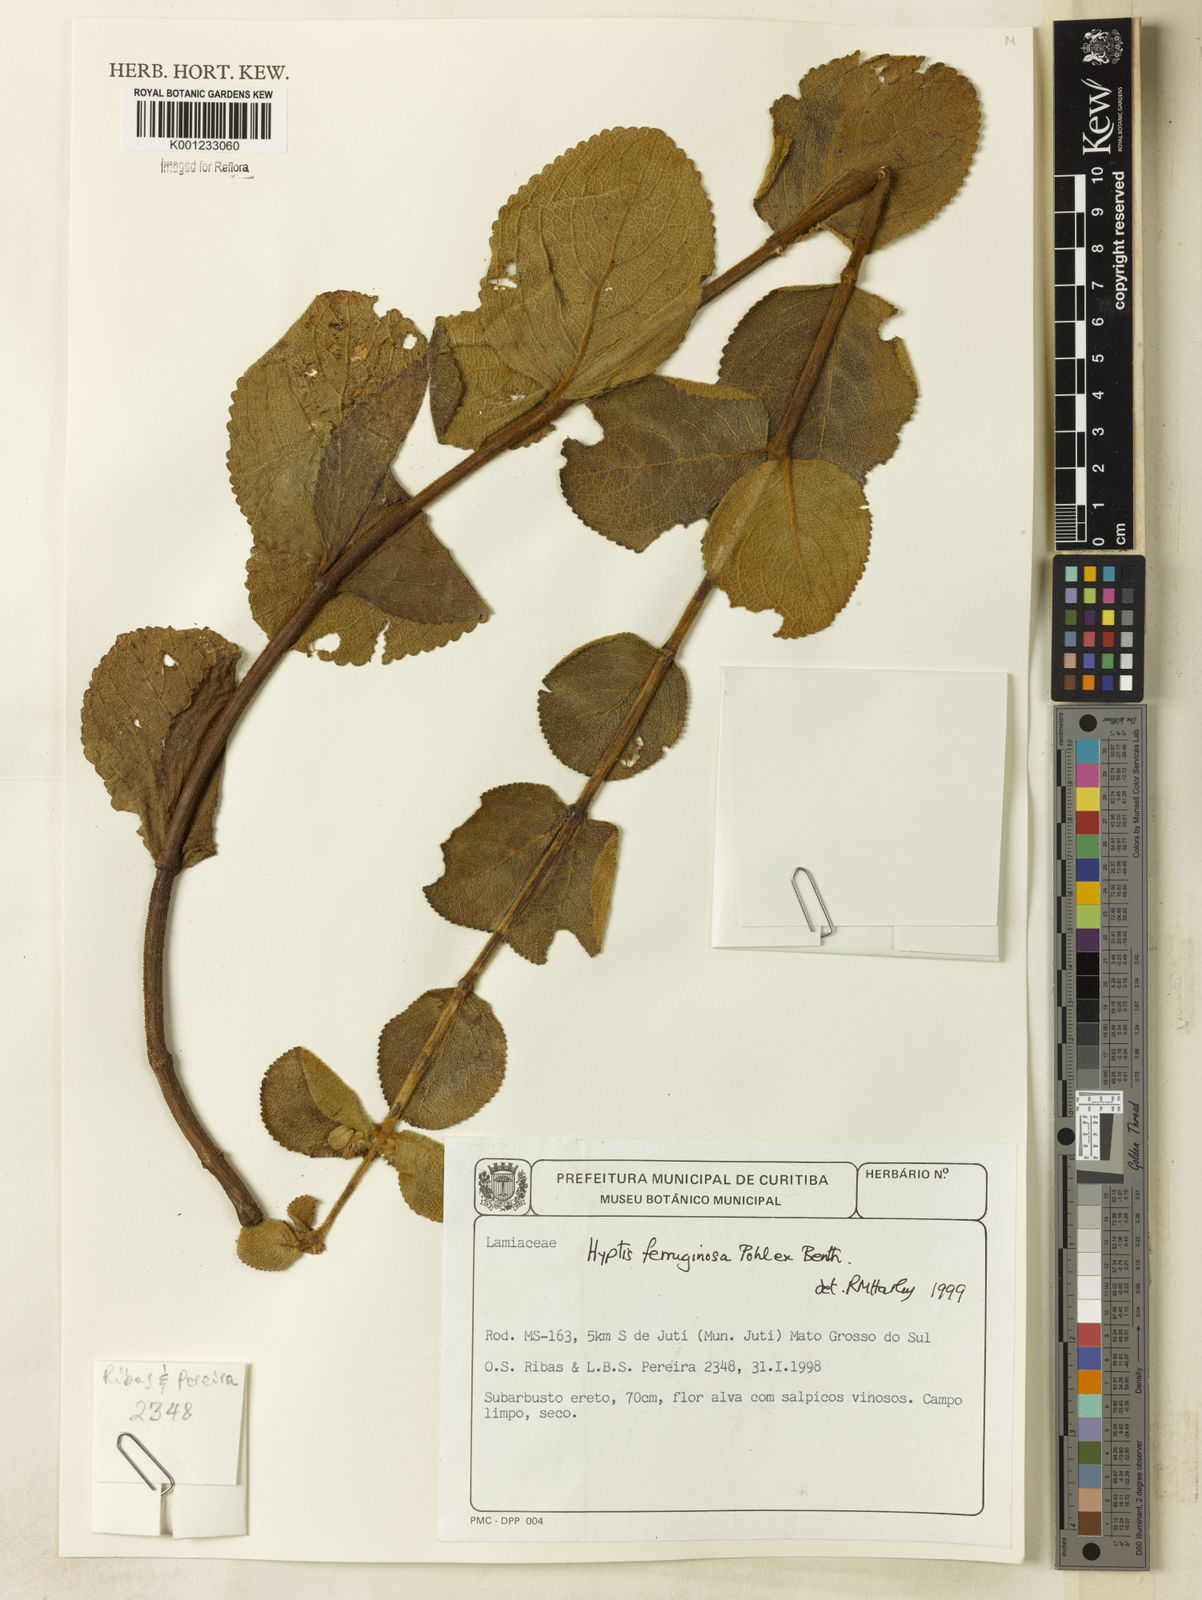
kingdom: Plantae
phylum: Tracheophyta
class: Magnoliopsida
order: Lamiales
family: Lamiaceae
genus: Hyptis
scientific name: Hyptis ferruginosa
